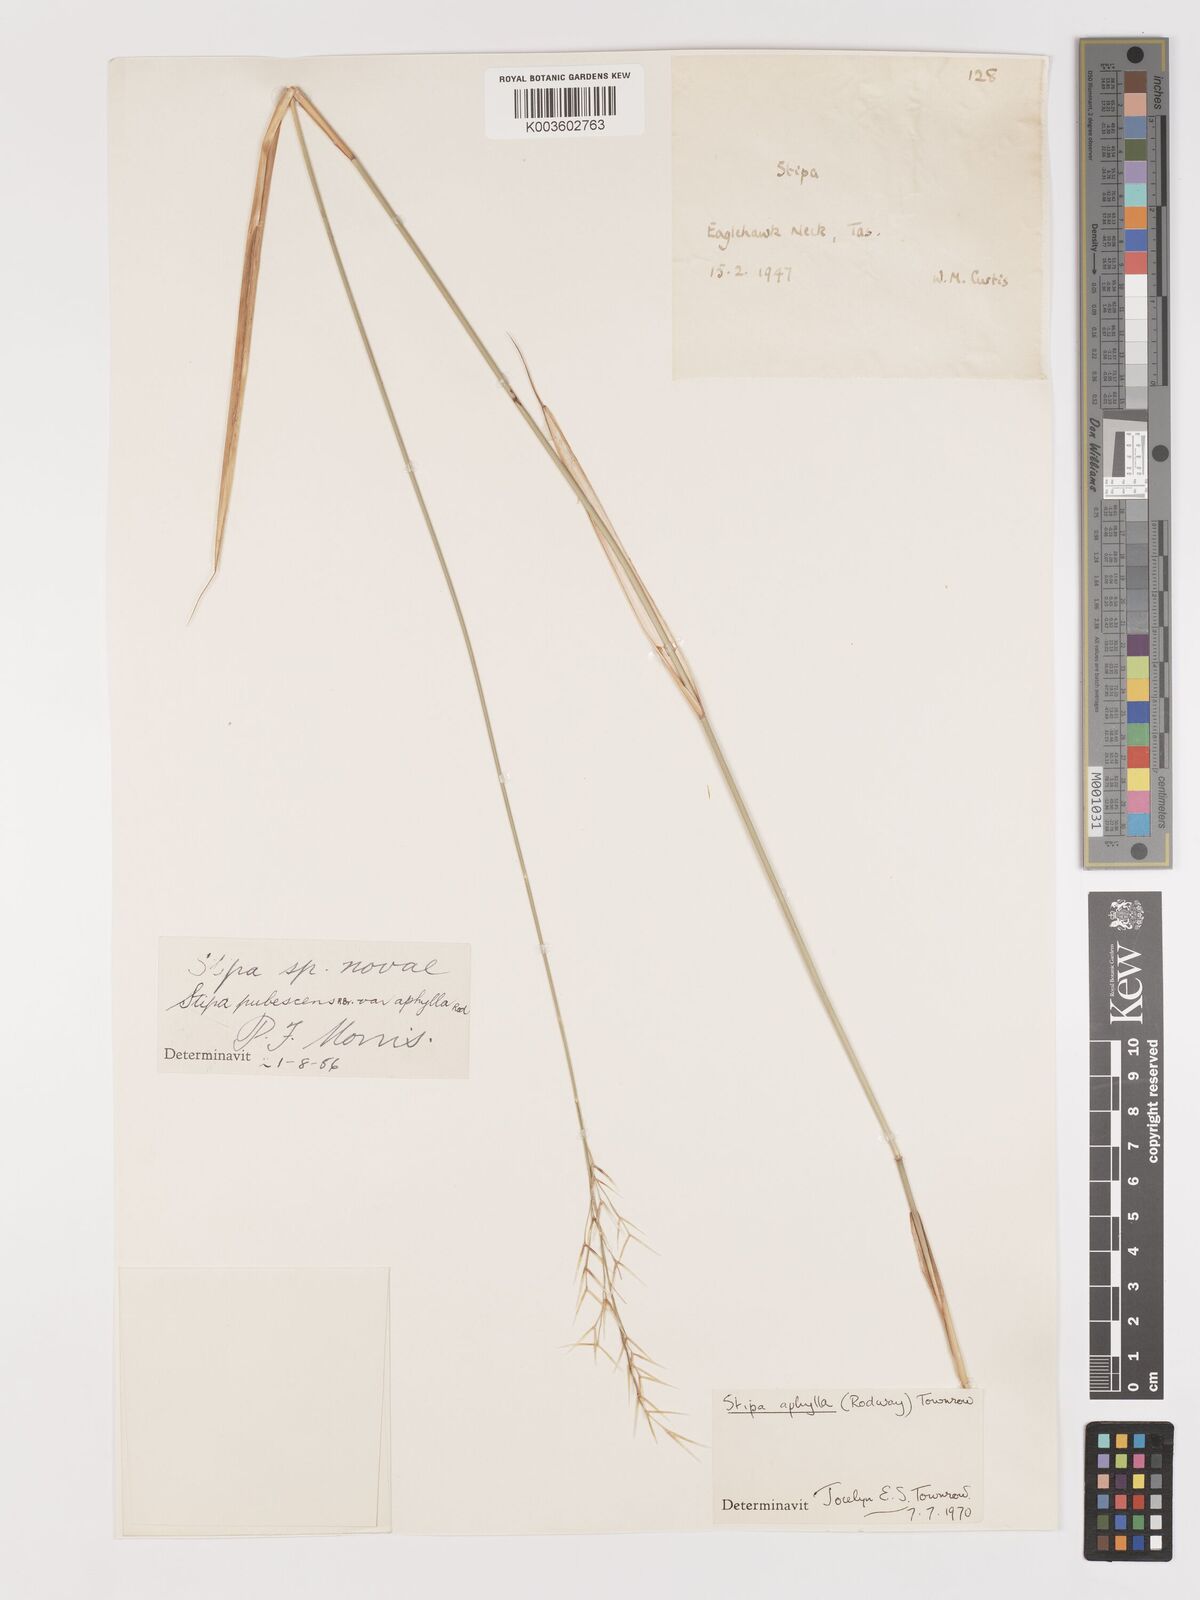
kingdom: Plantae
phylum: Tracheophyta
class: Liliopsida
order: Poales
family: Poaceae
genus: Austrostipa
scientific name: Austrostipa aphylla
